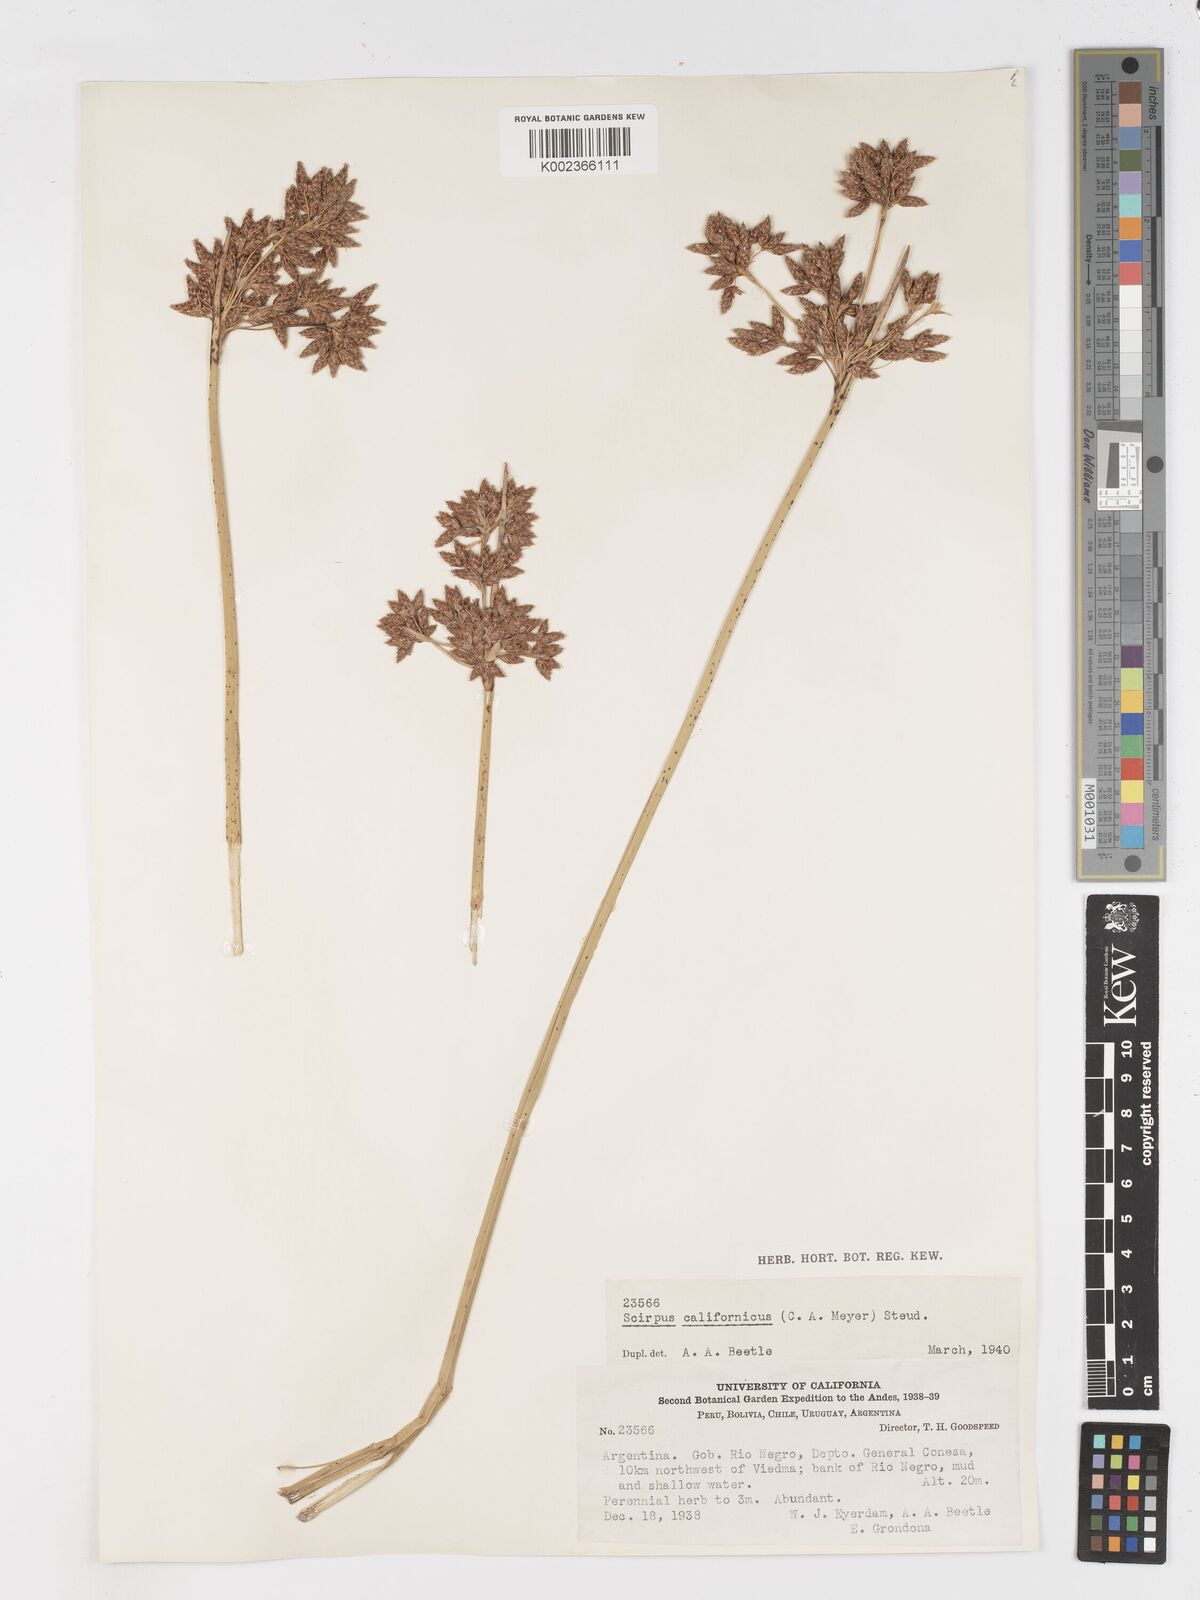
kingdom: Plantae
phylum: Tracheophyta
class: Liliopsida
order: Poales
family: Cyperaceae
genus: Schoenoplectus
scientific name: Schoenoplectus californicus
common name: California bulrush
